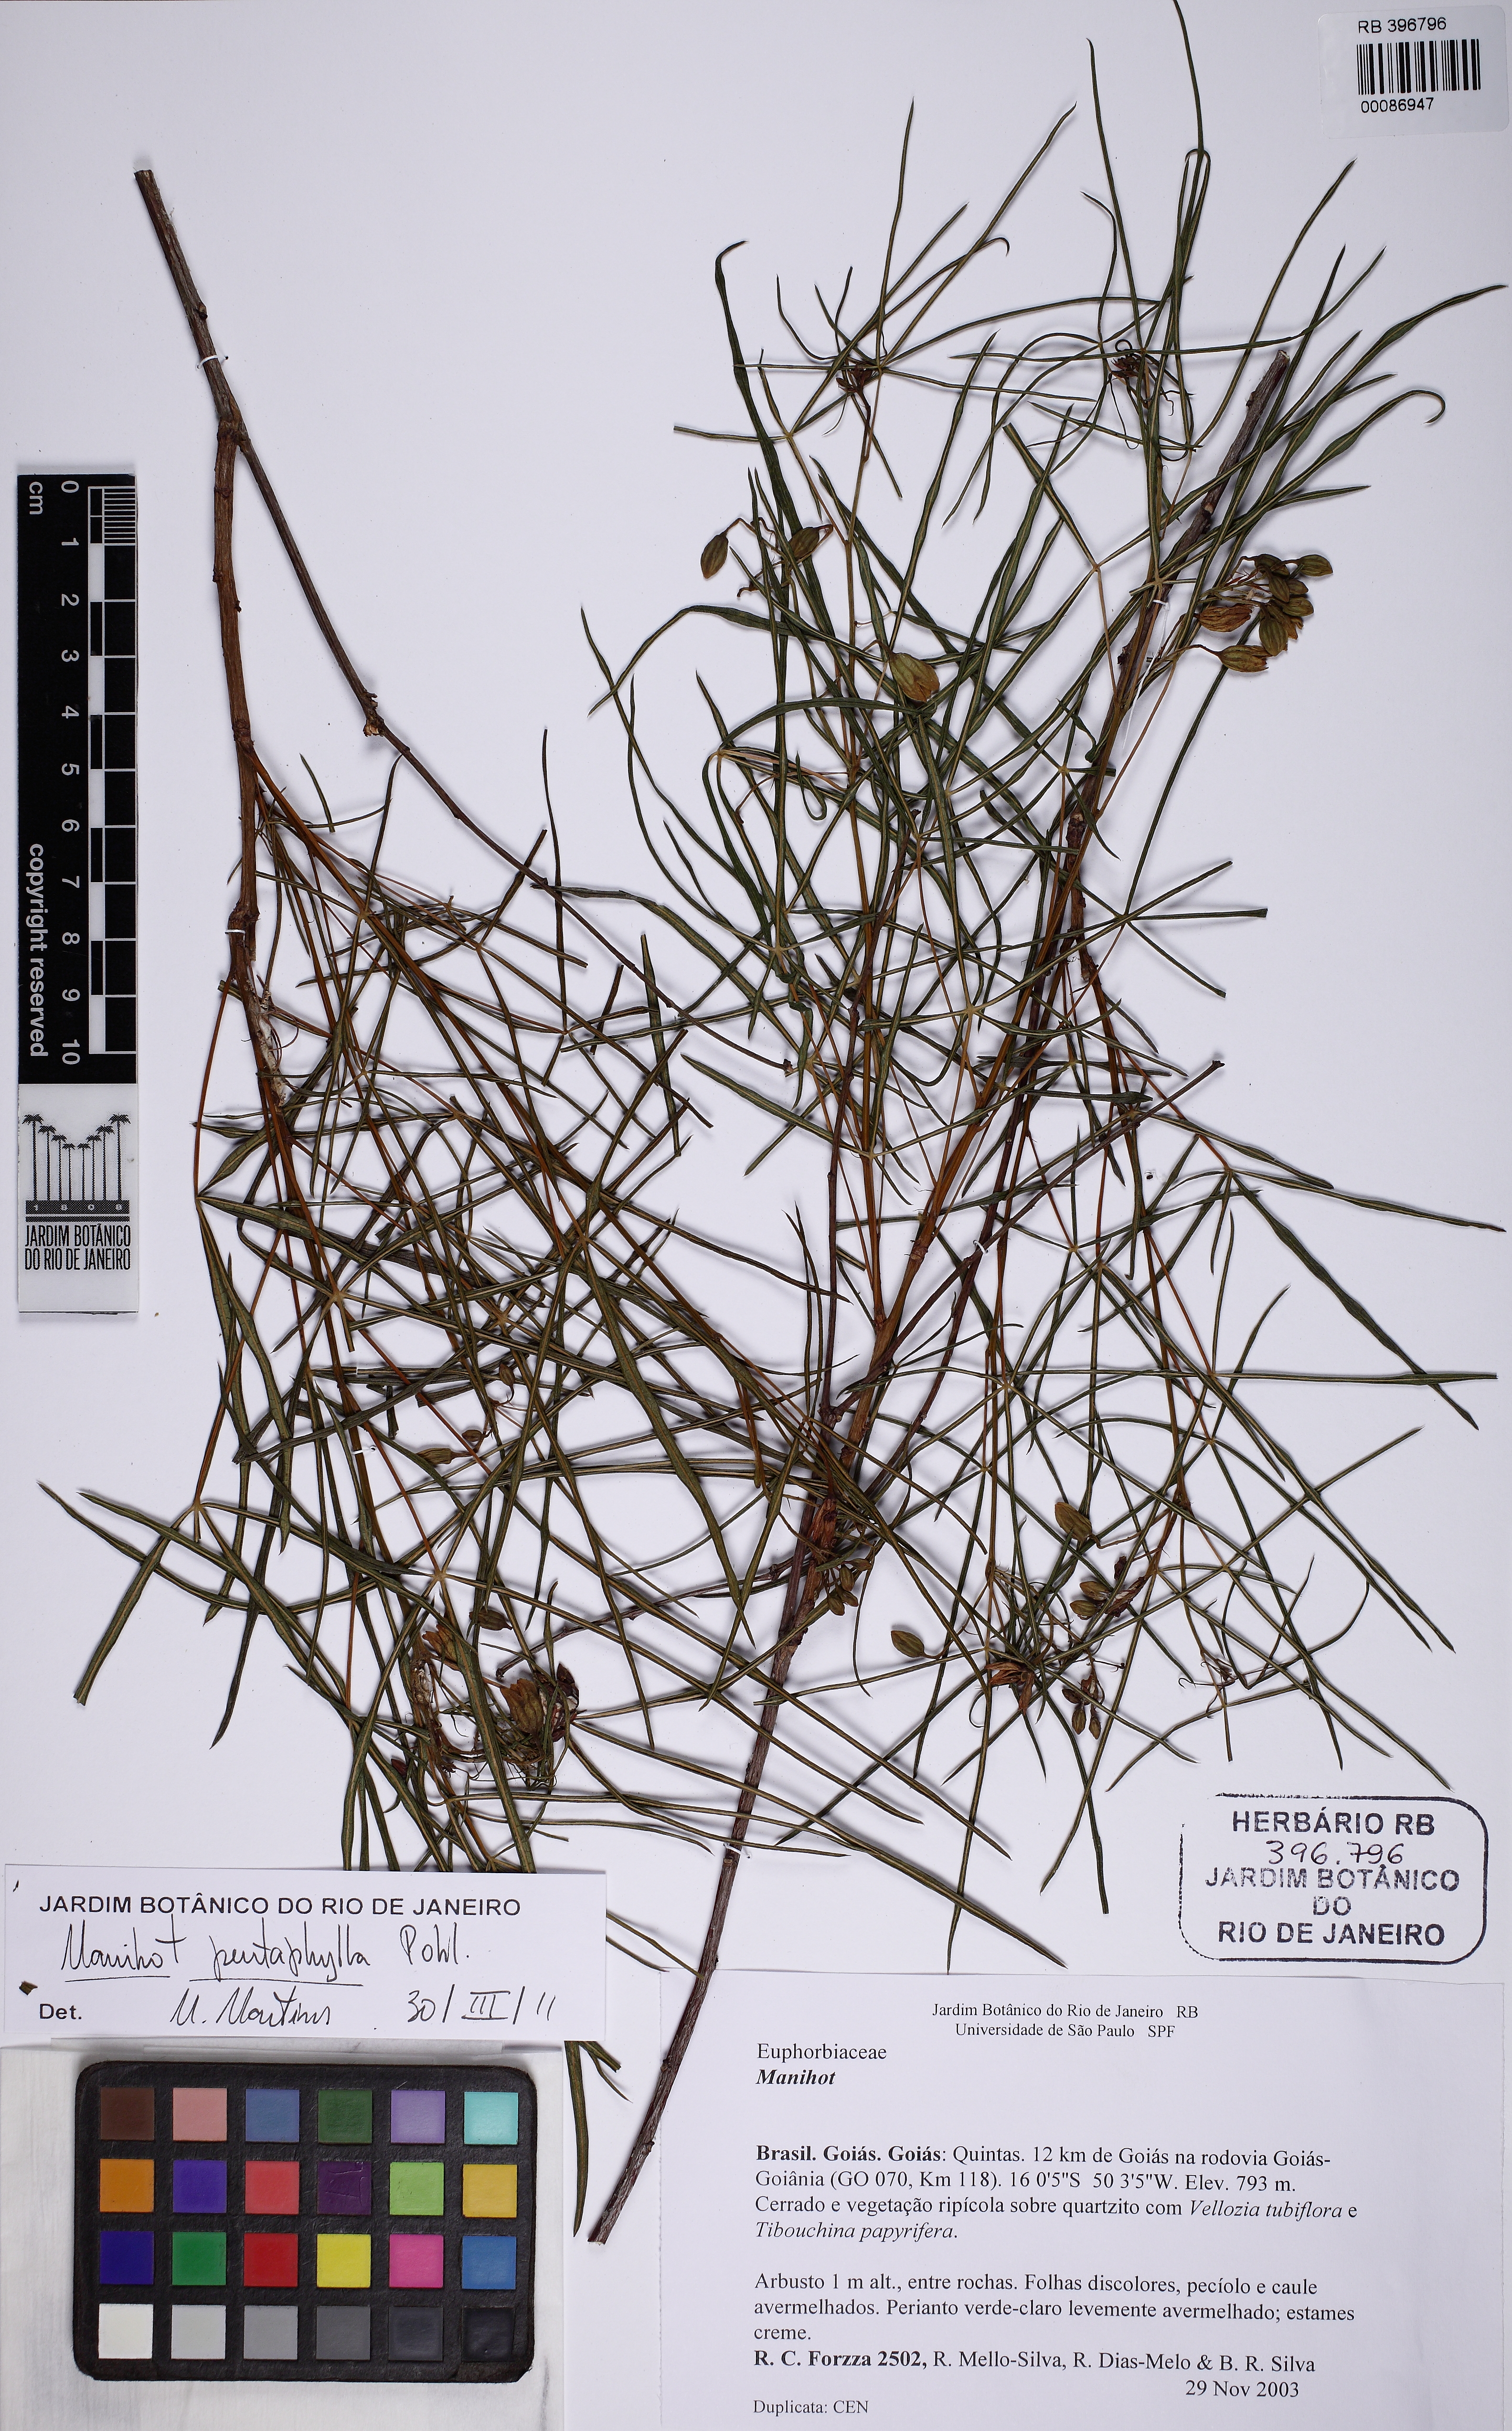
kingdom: Plantae
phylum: Tracheophyta
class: Magnoliopsida
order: Malpighiales
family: Euphorbiaceae
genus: Manihot
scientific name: Manihot pentaphylla
